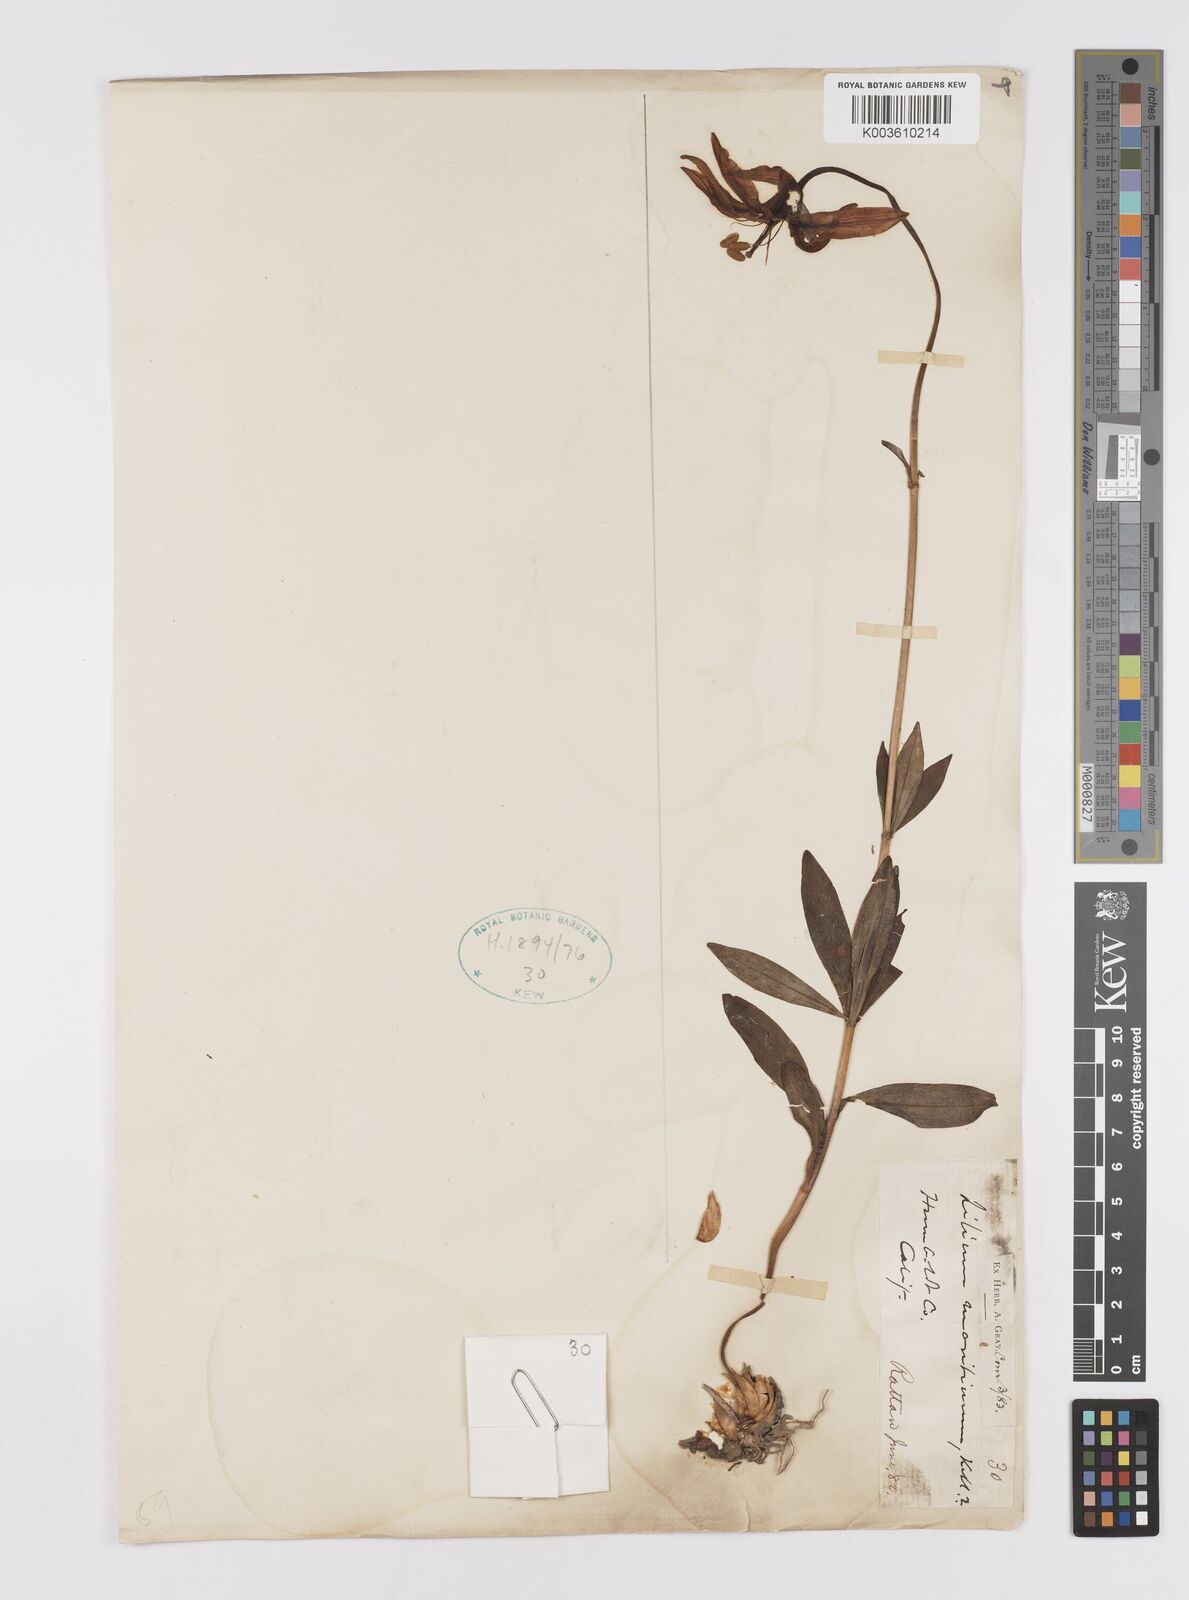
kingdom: Plantae
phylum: Tracheophyta
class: Liliopsida
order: Liliales
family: Liliaceae
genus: Lilium
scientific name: Lilium maritimum
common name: Coastal lily
